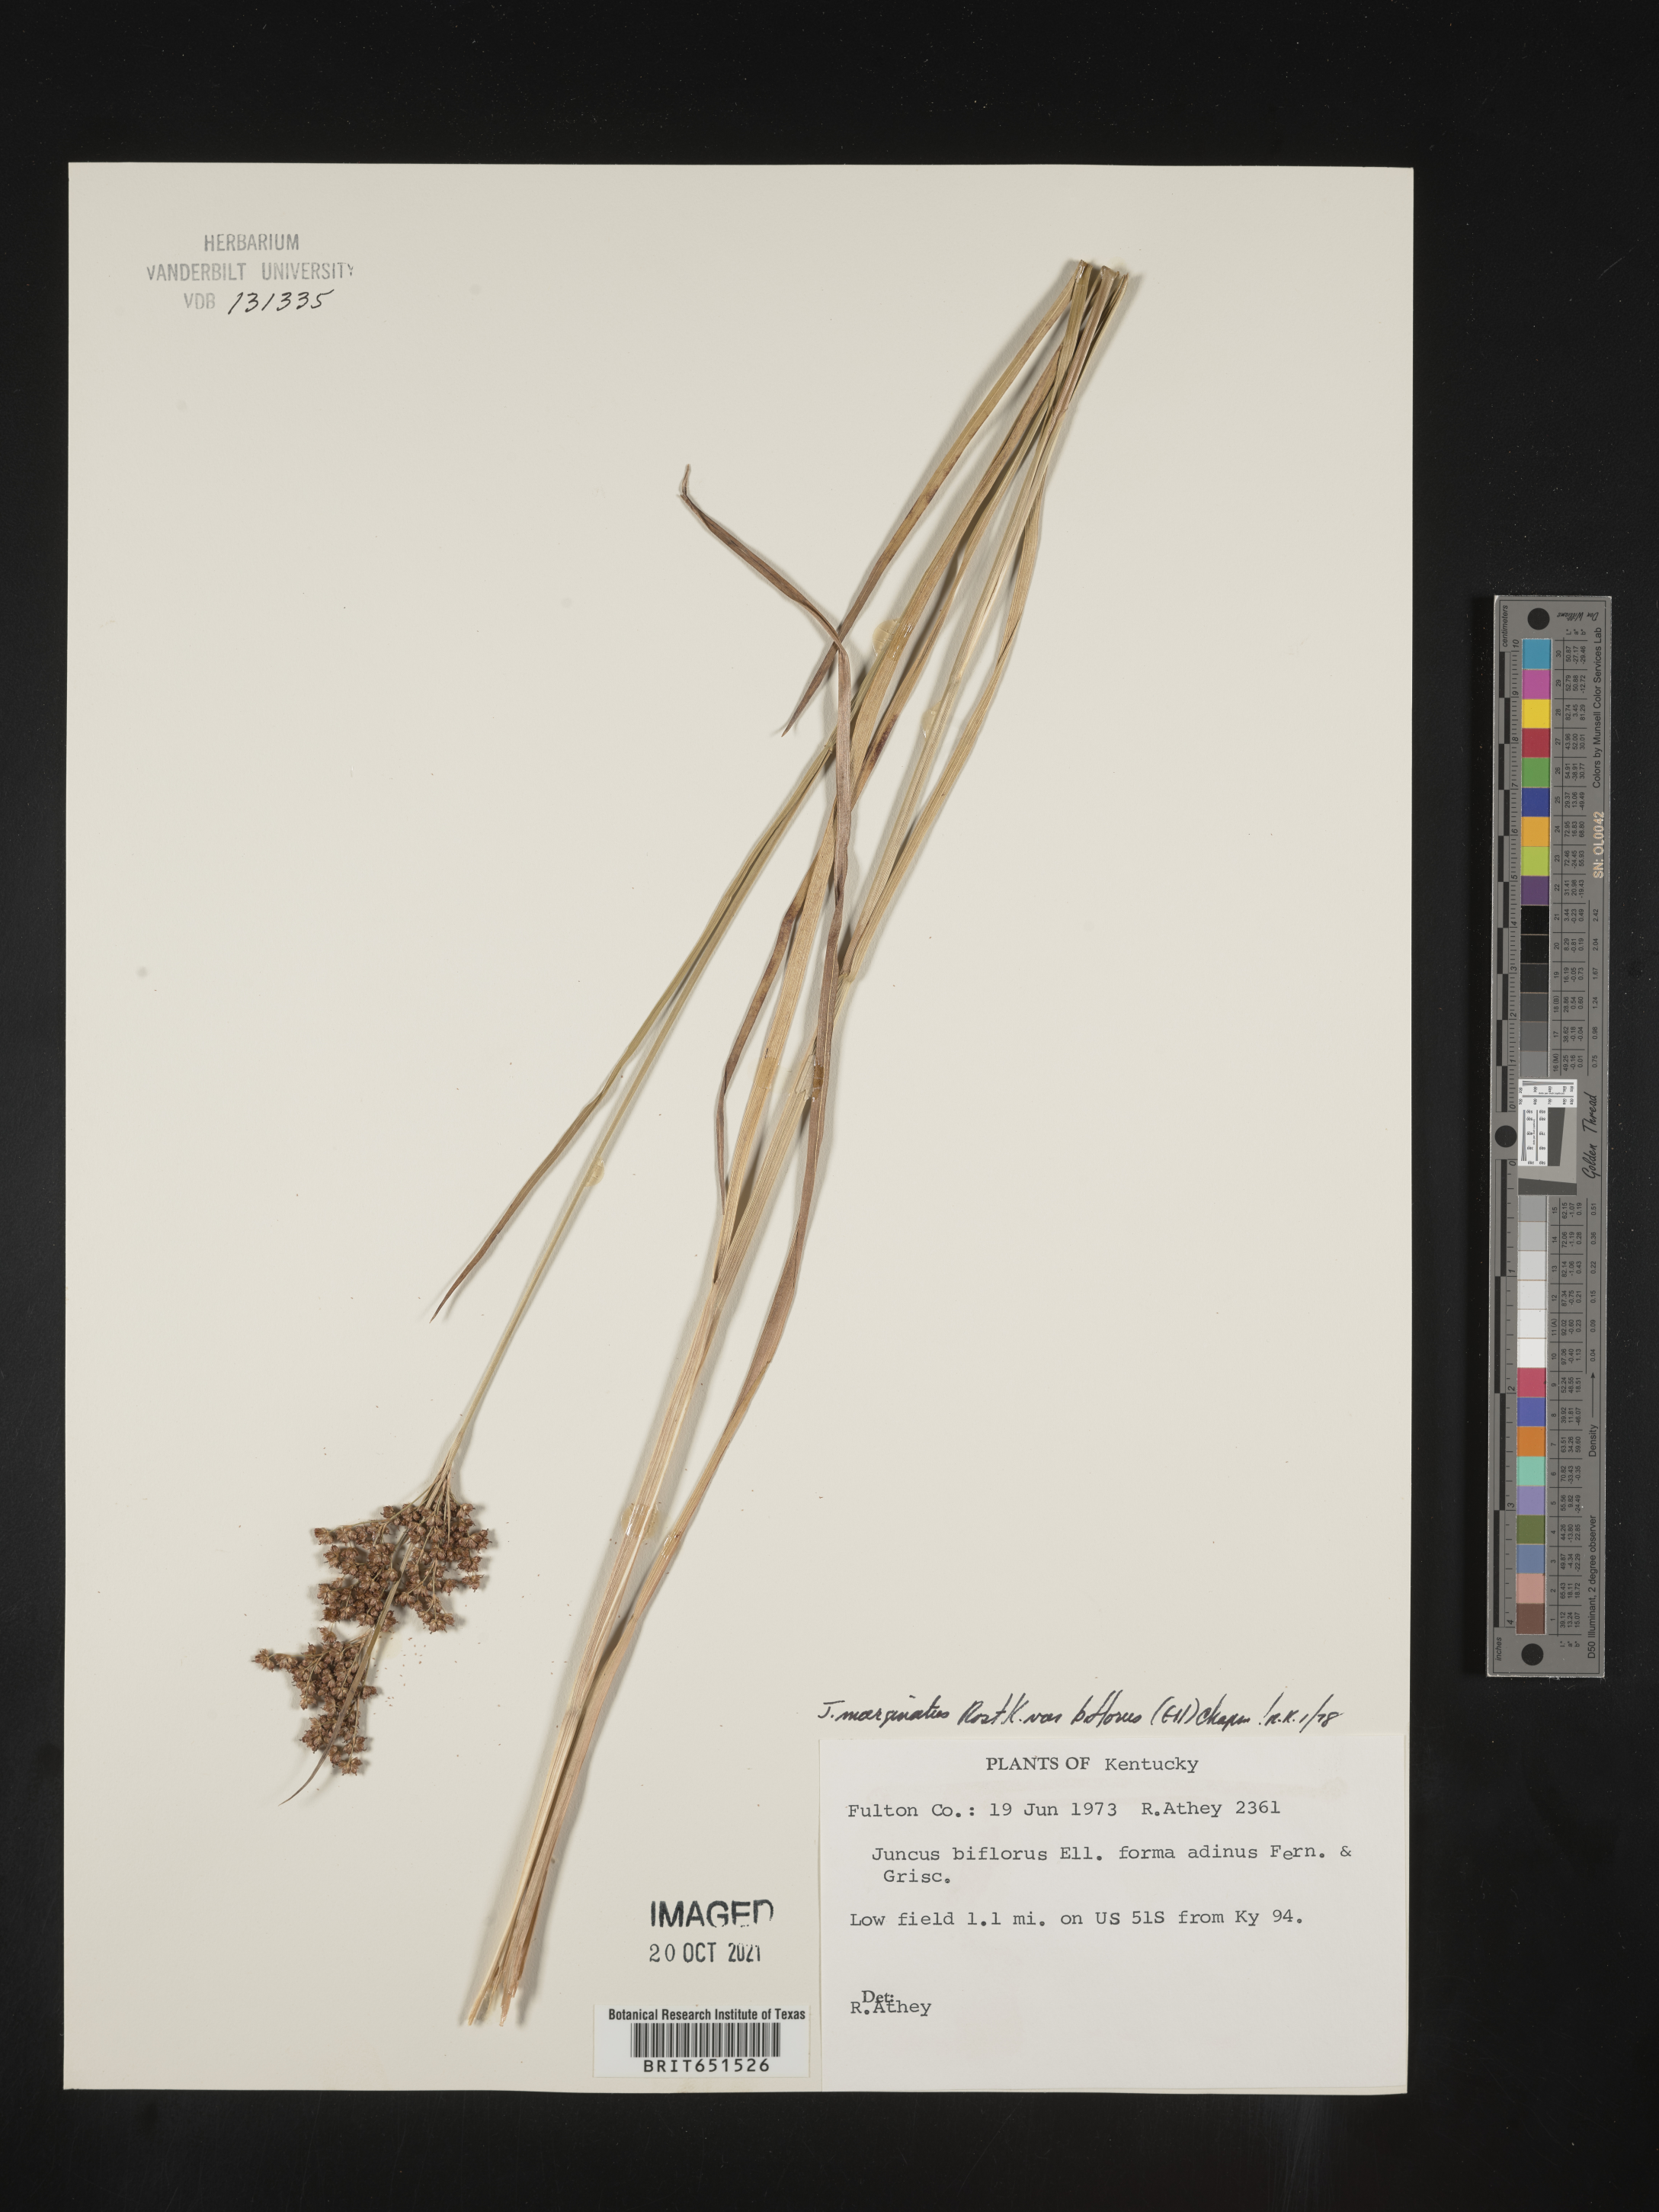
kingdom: Plantae
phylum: Tracheophyta
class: Liliopsida
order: Poales
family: Juncaceae
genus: Juncus
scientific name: Juncus biflorus
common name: Two-flowered rush
